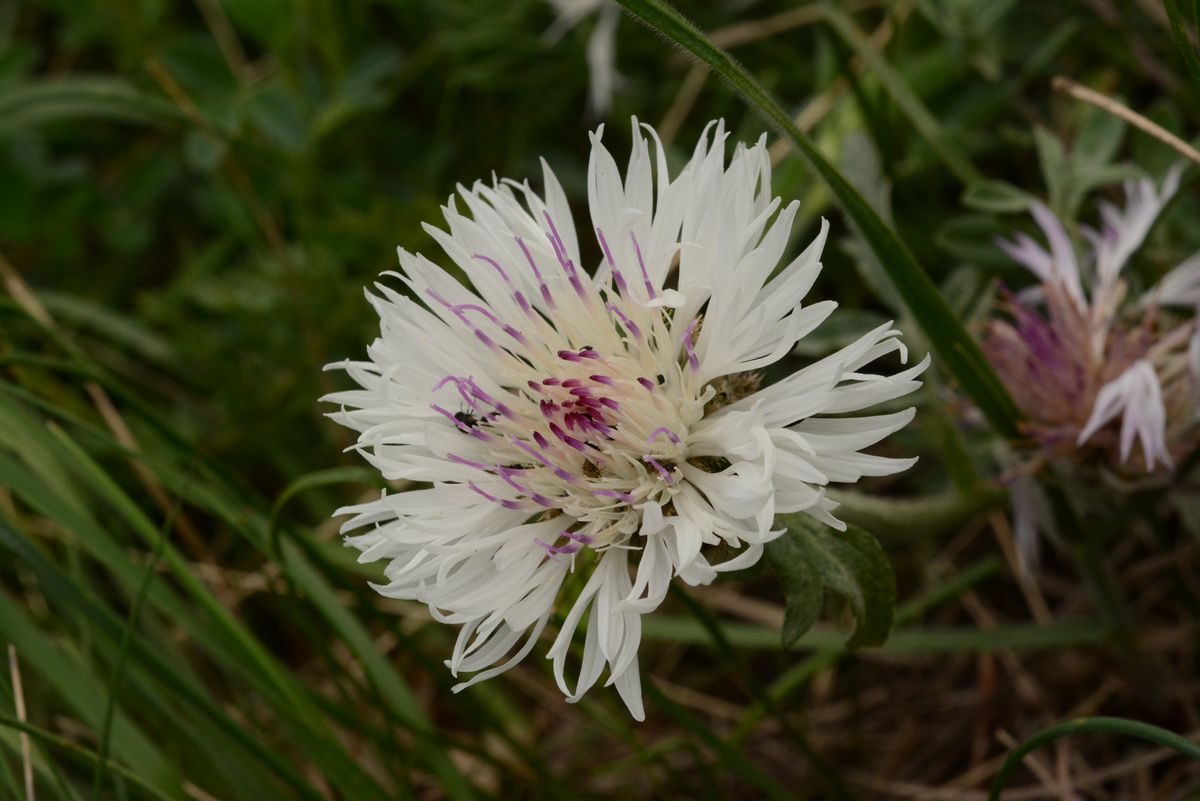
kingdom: Plantae
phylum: Tracheophyta
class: Magnoliopsida
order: Asterales
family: Asteraceae
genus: Psephellus
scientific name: Psephellus declinatus
